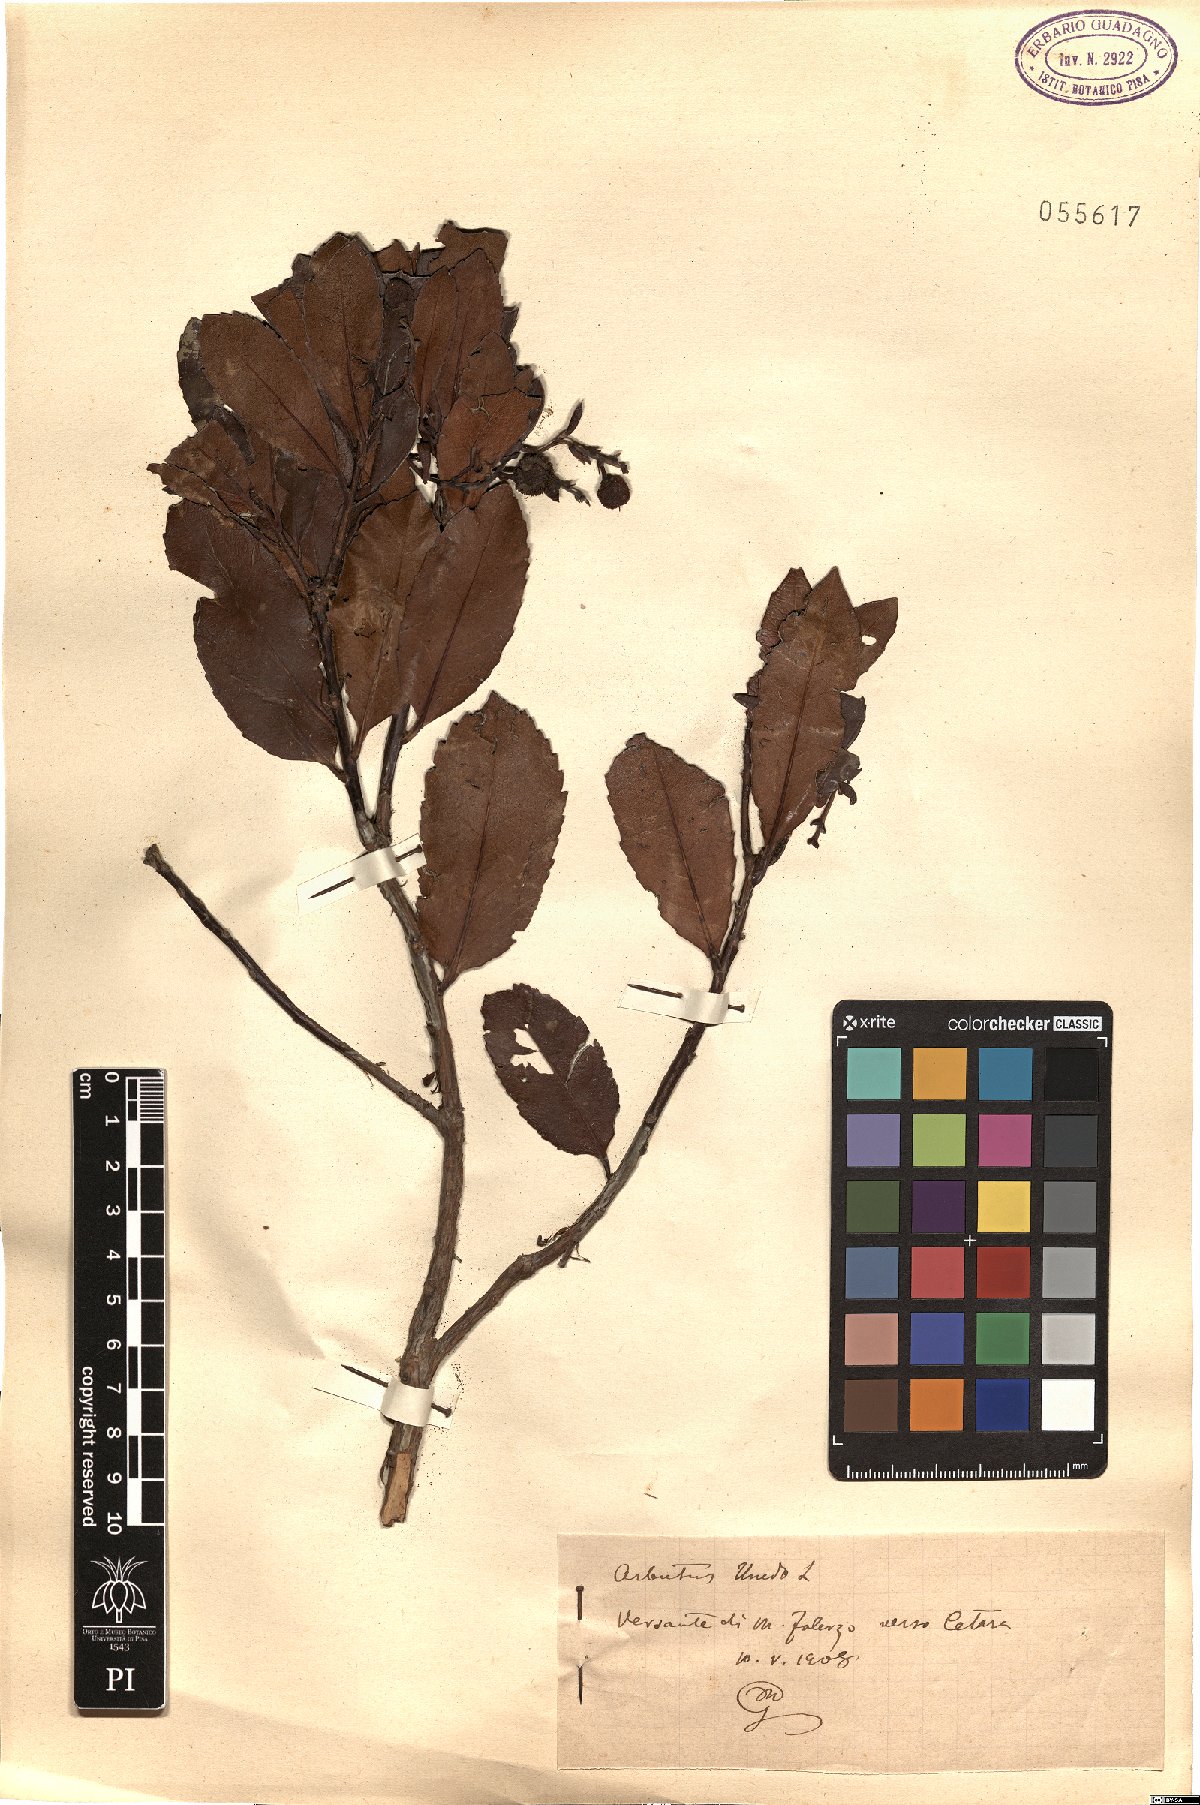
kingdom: Plantae
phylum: Tracheophyta
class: Magnoliopsida
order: Ericales
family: Ericaceae
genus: Arbutus
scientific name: Arbutus unedo
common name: Strawberry-tree
